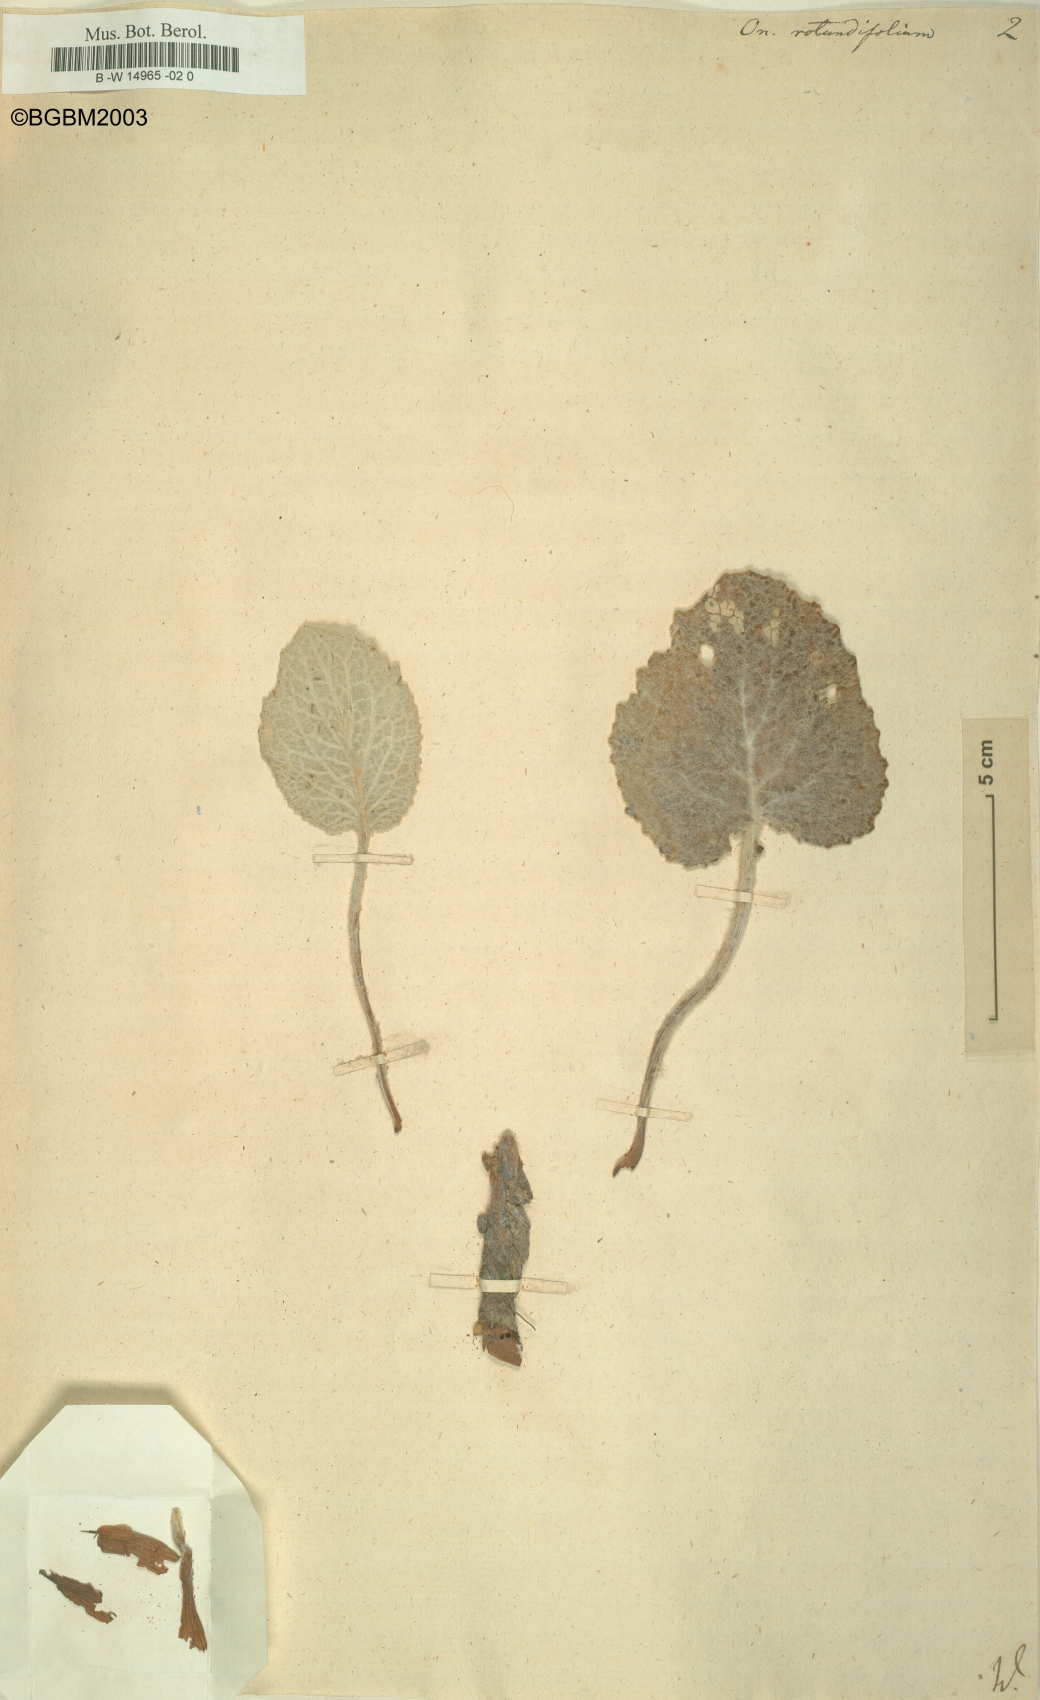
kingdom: Plantae
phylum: Tracheophyta
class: Magnoliopsida
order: Asterales
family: Asteraceae
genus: Berardia
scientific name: Berardia lanuginosa
